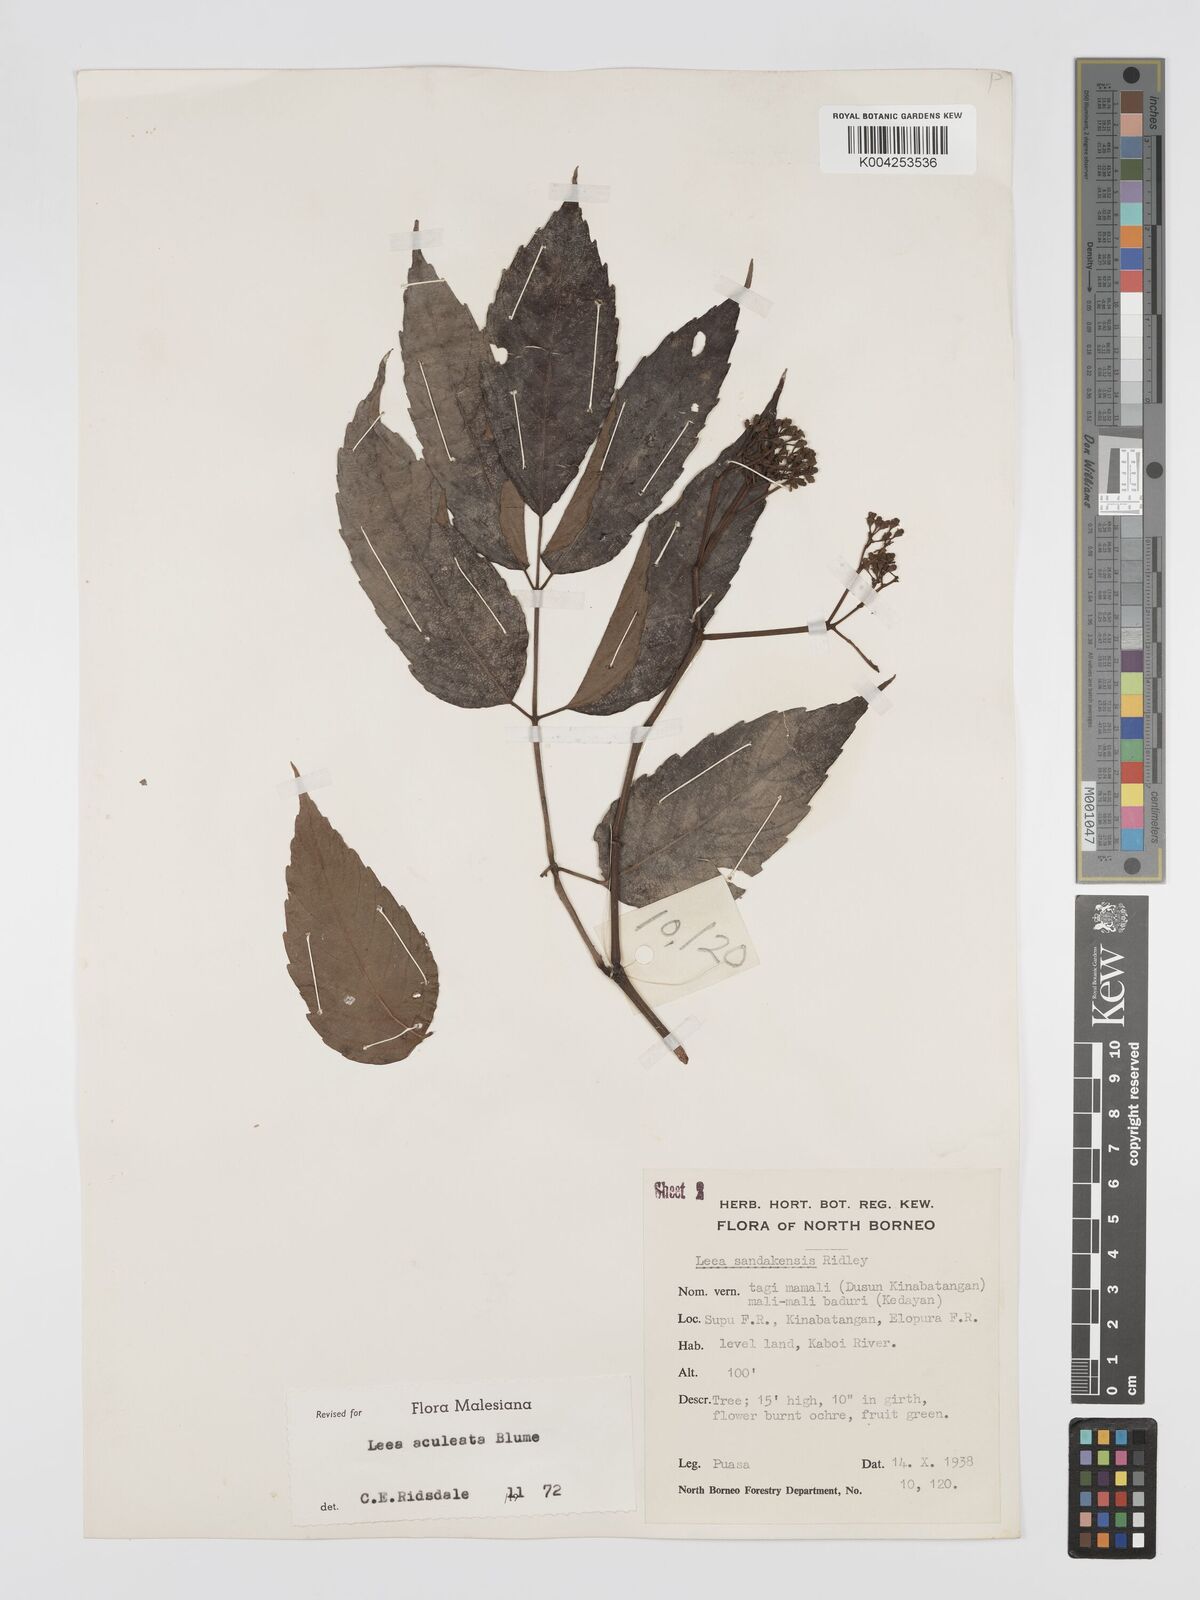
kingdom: Plantae
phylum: Tracheophyta
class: Magnoliopsida
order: Vitales
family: Vitaceae
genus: Leea
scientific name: Leea aculeata
